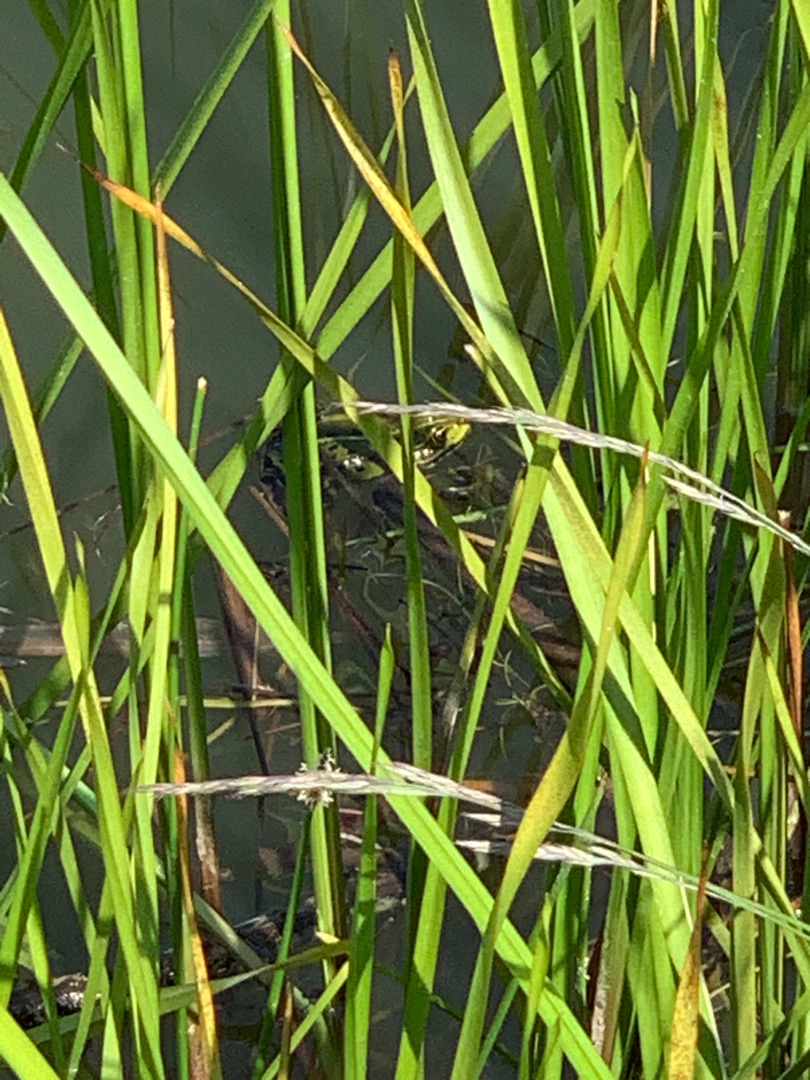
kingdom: Animalia
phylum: Chordata
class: Amphibia
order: Anura
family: Ranidae
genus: Pelophylax
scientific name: Pelophylax lessonae
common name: Grøn frø
